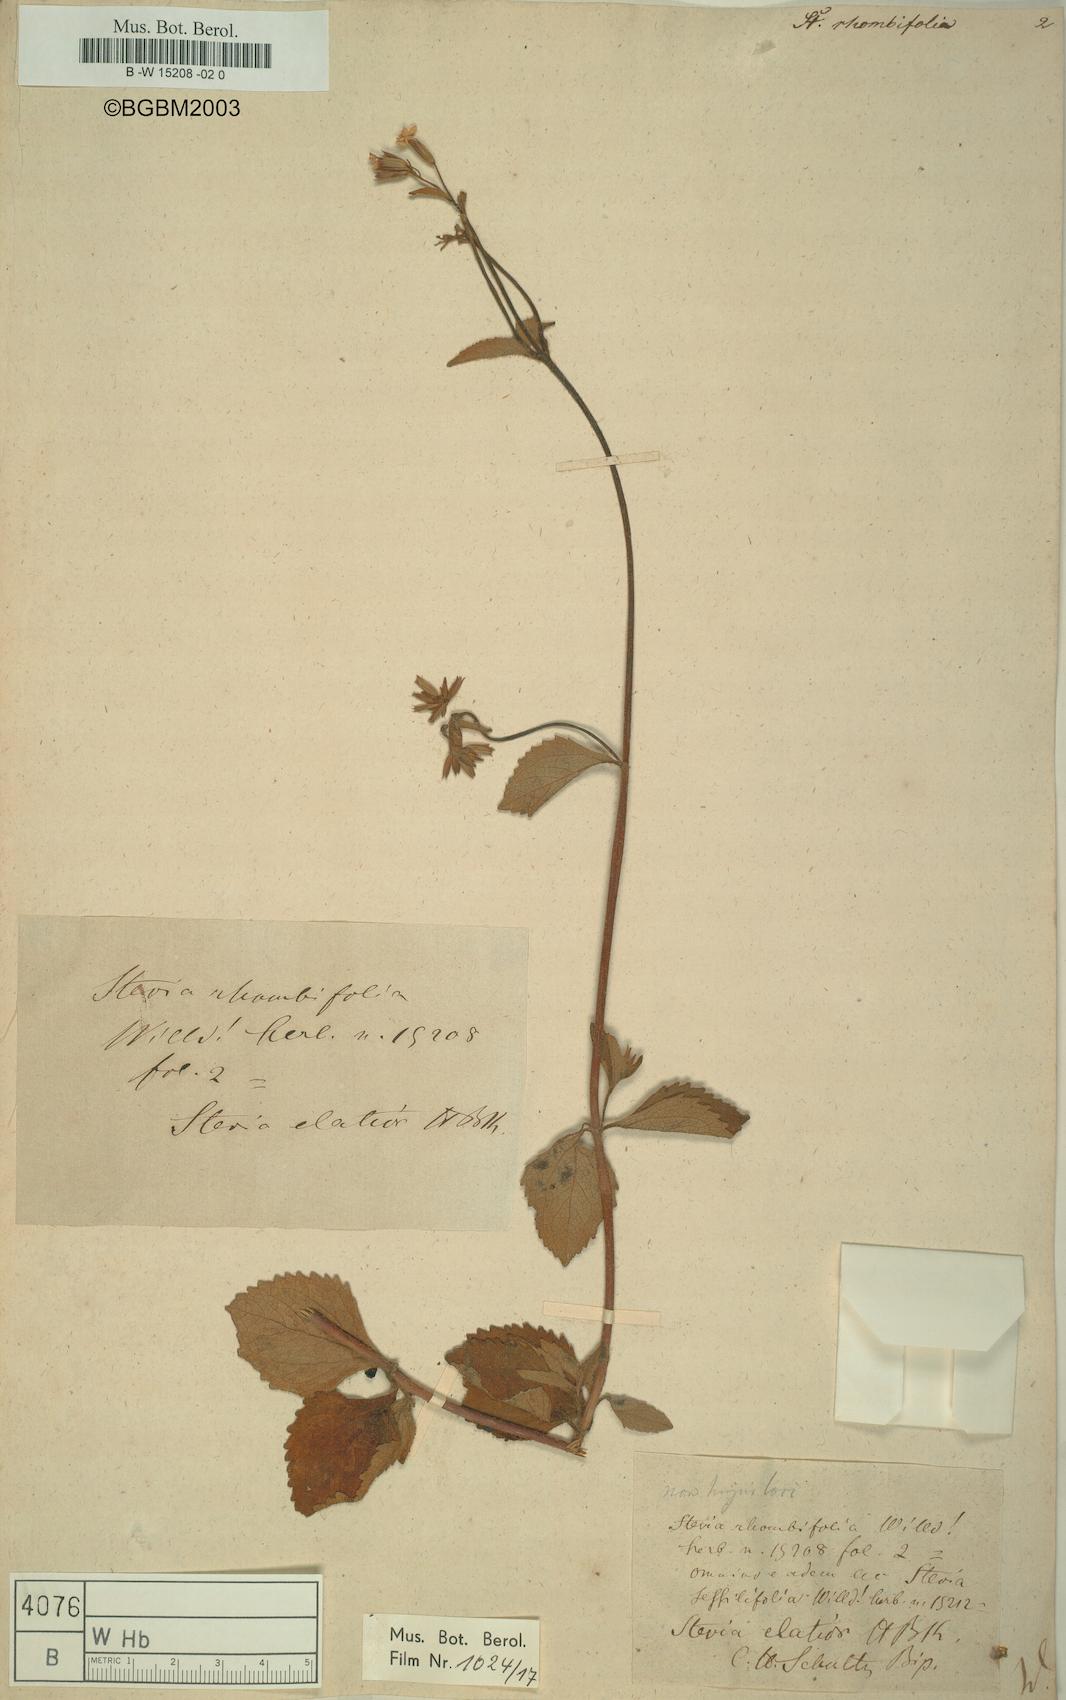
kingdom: Plantae
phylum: Tracheophyta
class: Magnoliopsida
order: Asterales
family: Asteraceae
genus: Stevia
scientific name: Stevia ovata
